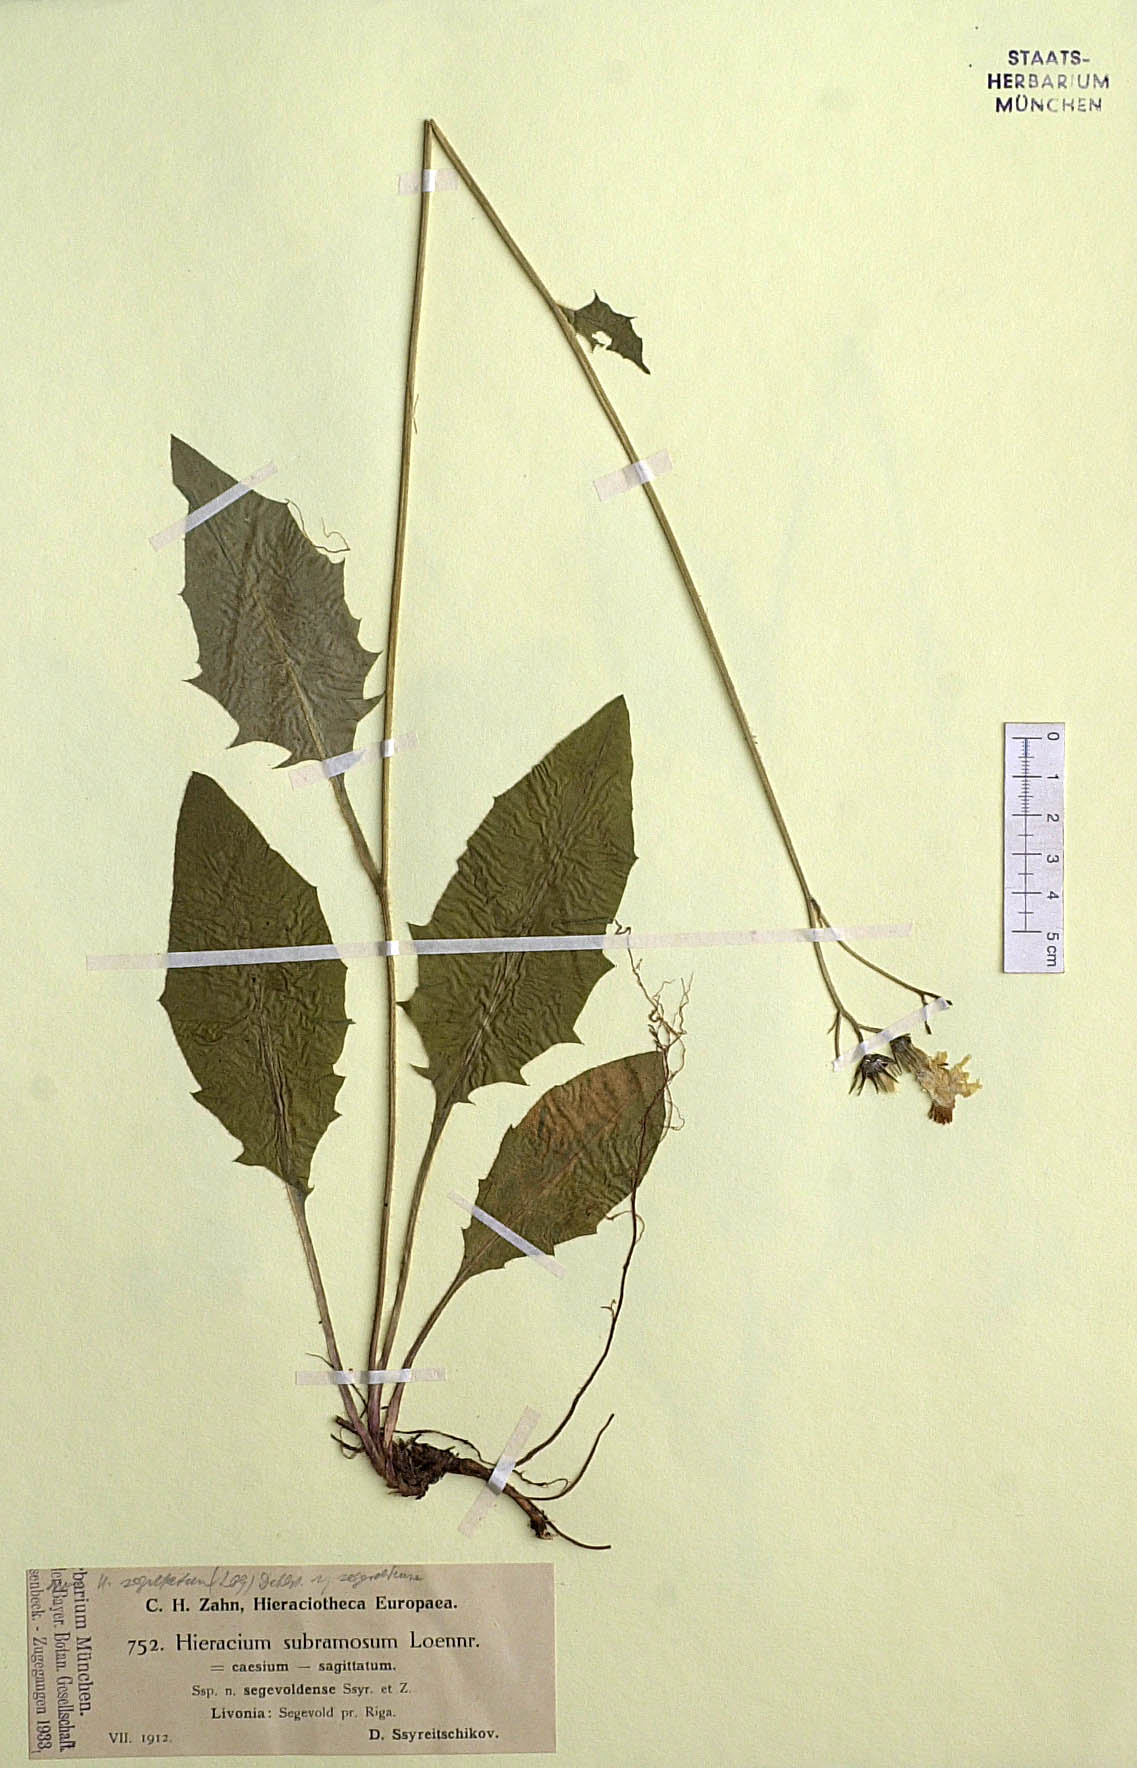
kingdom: Plantae
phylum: Tracheophyta
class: Magnoliopsida
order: Asterales
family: Asteraceae
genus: Hieracium
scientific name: Hieracium fuscocinereum
